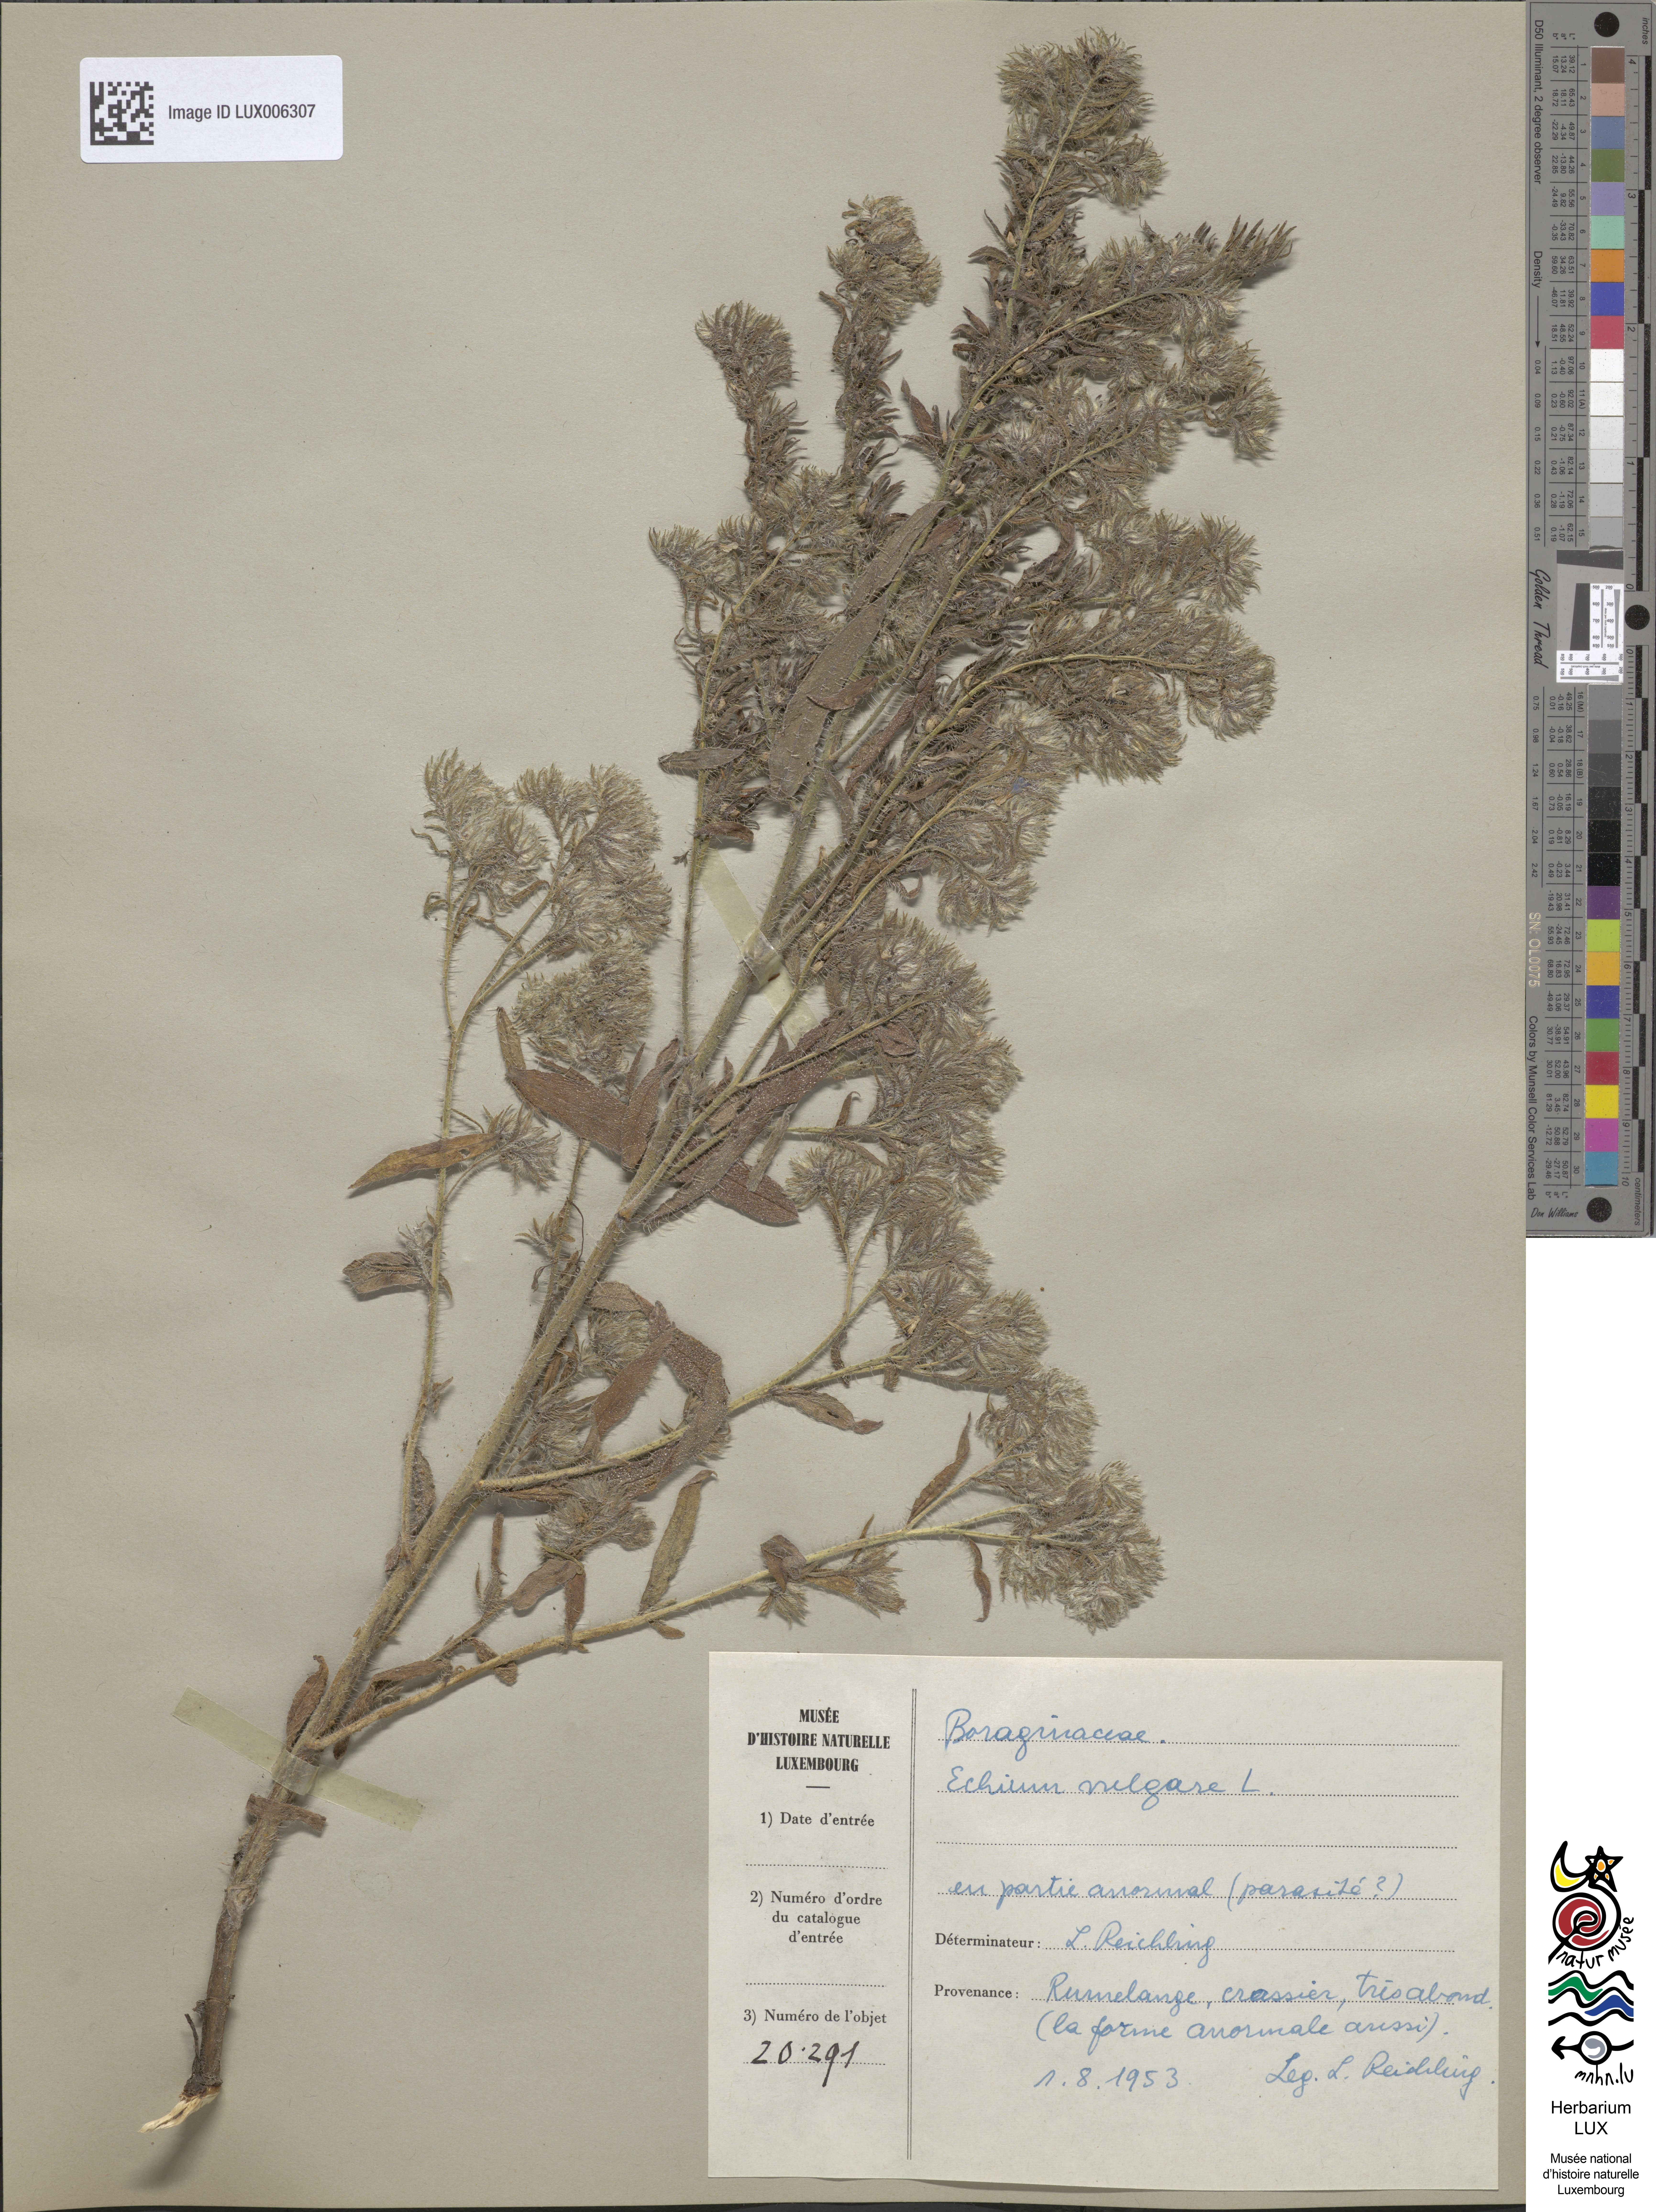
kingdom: Plantae
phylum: Tracheophyta
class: Magnoliopsida
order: Boraginales
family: Boraginaceae
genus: Echium
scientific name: Echium vulgare
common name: Common viper's bugloss
